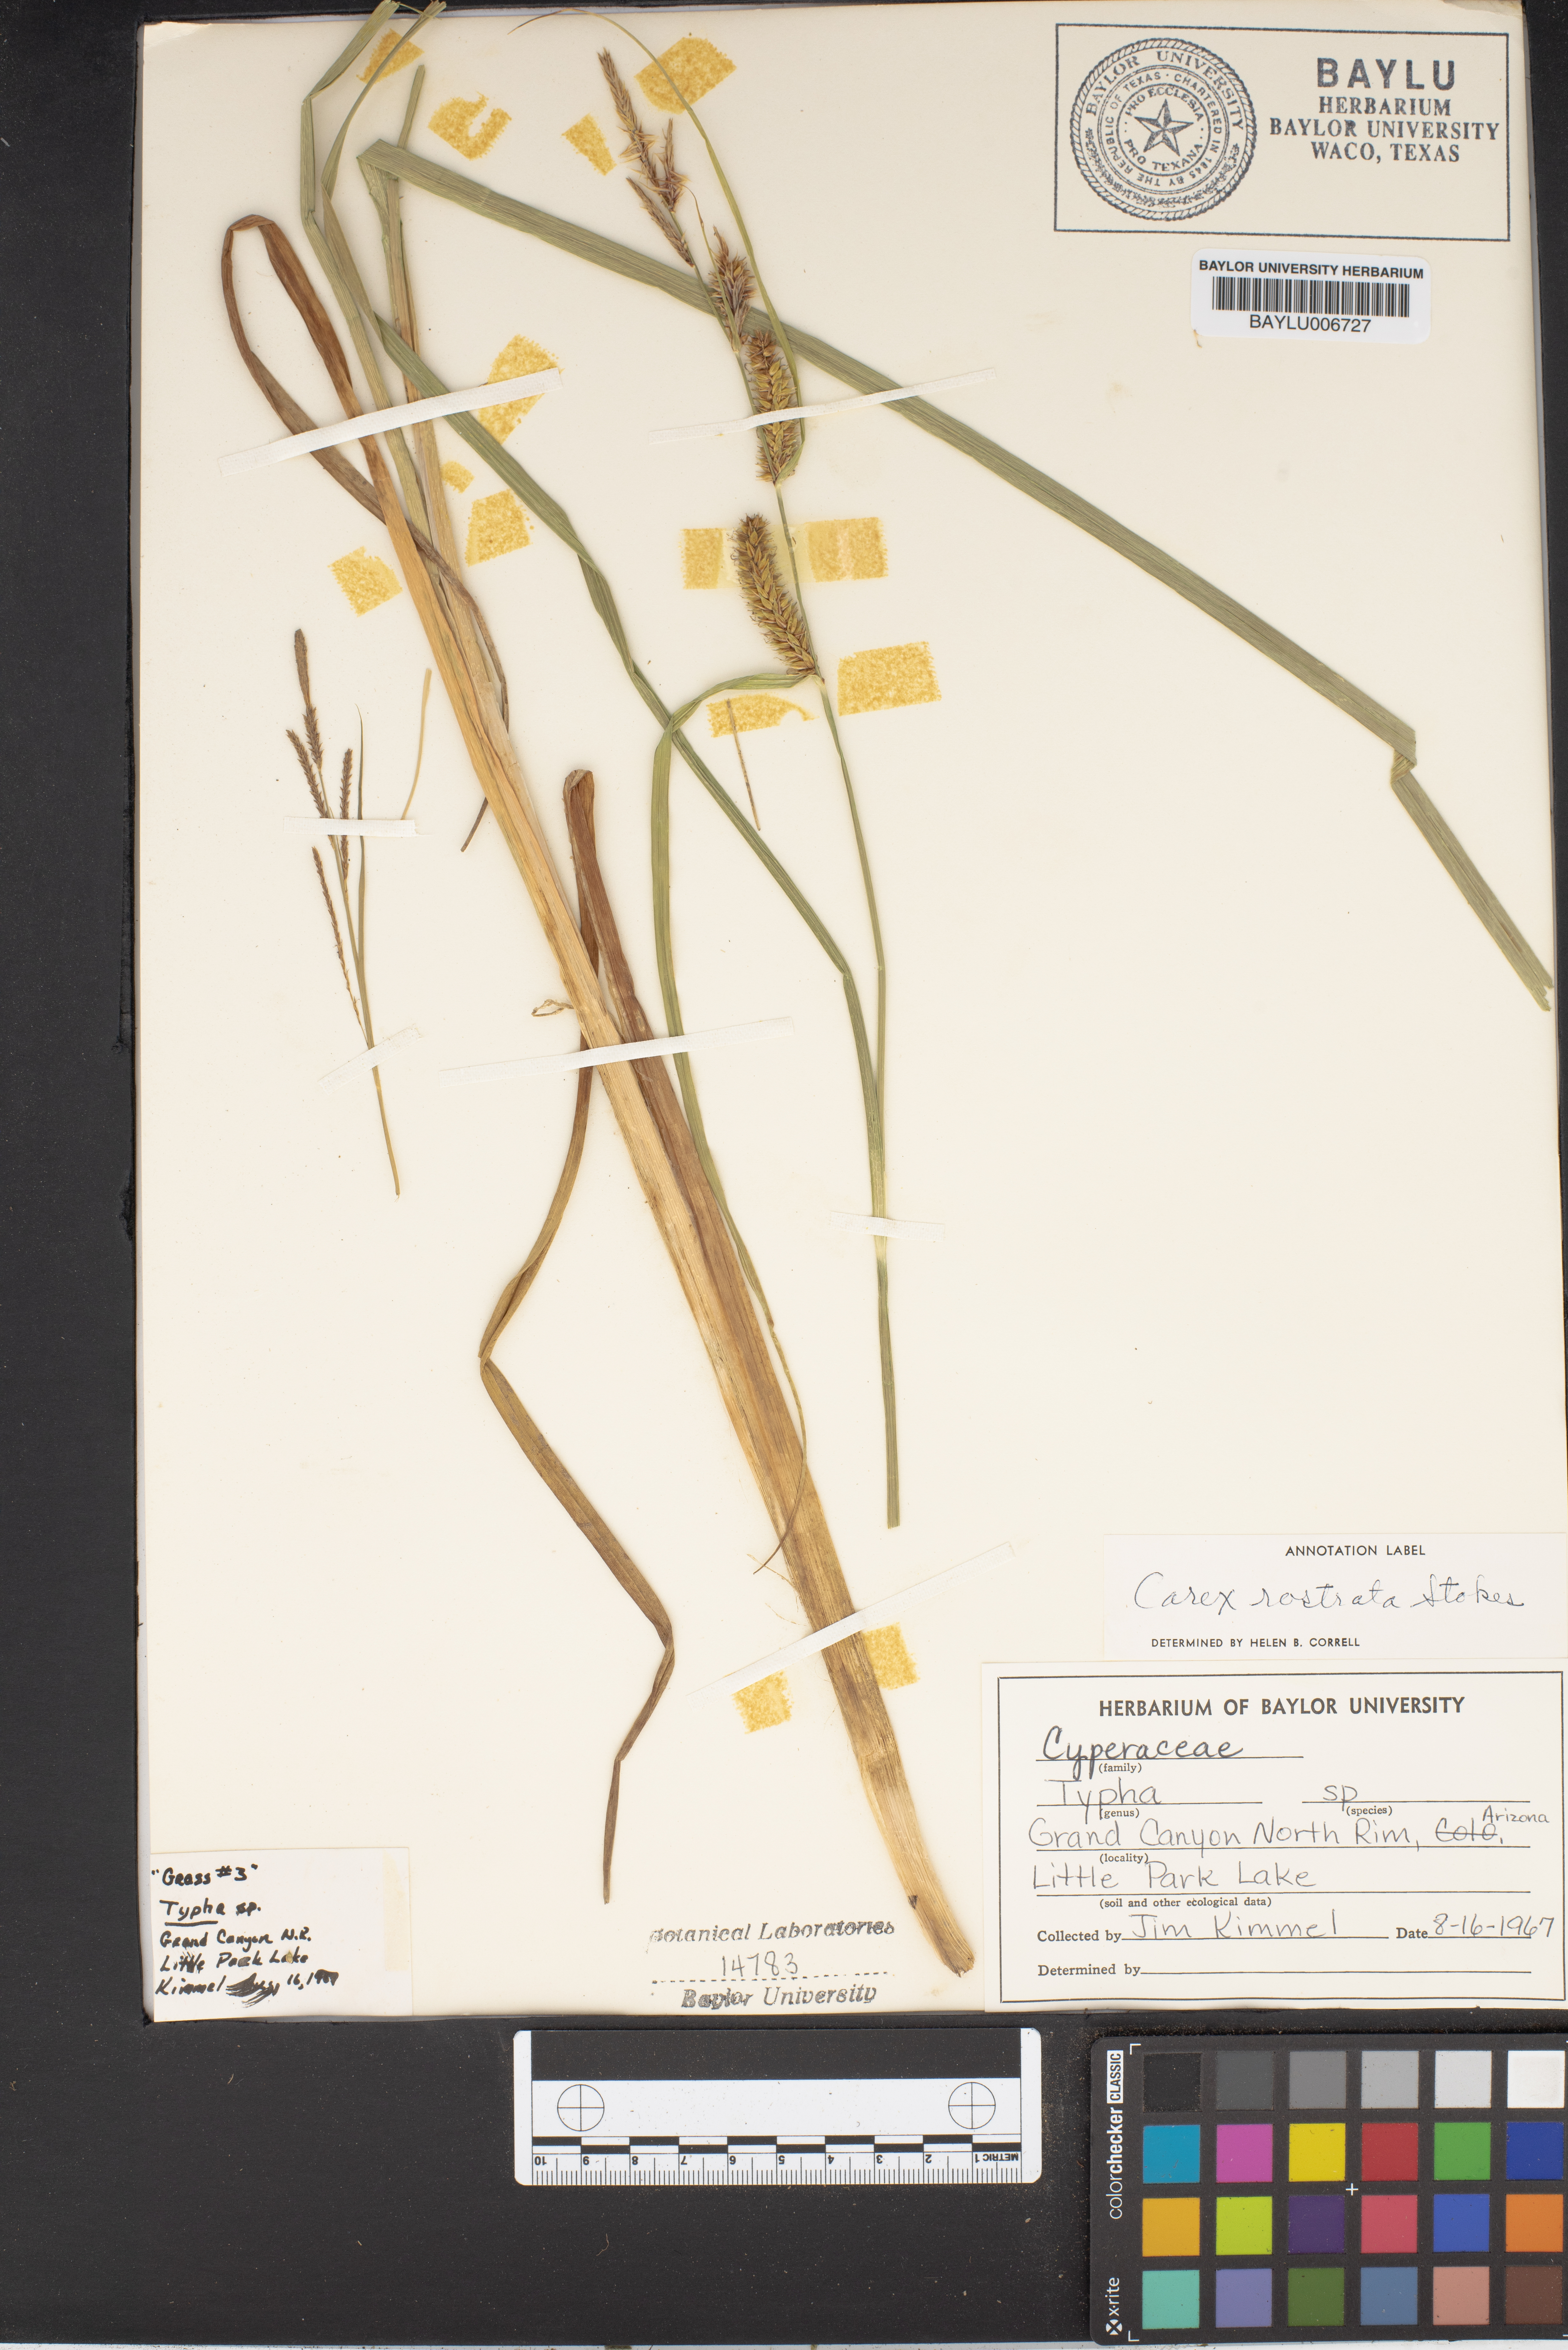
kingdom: Plantae
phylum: Tracheophyta
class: Liliopsida
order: Poales
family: Typhaceae
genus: Typha
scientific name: Typha
